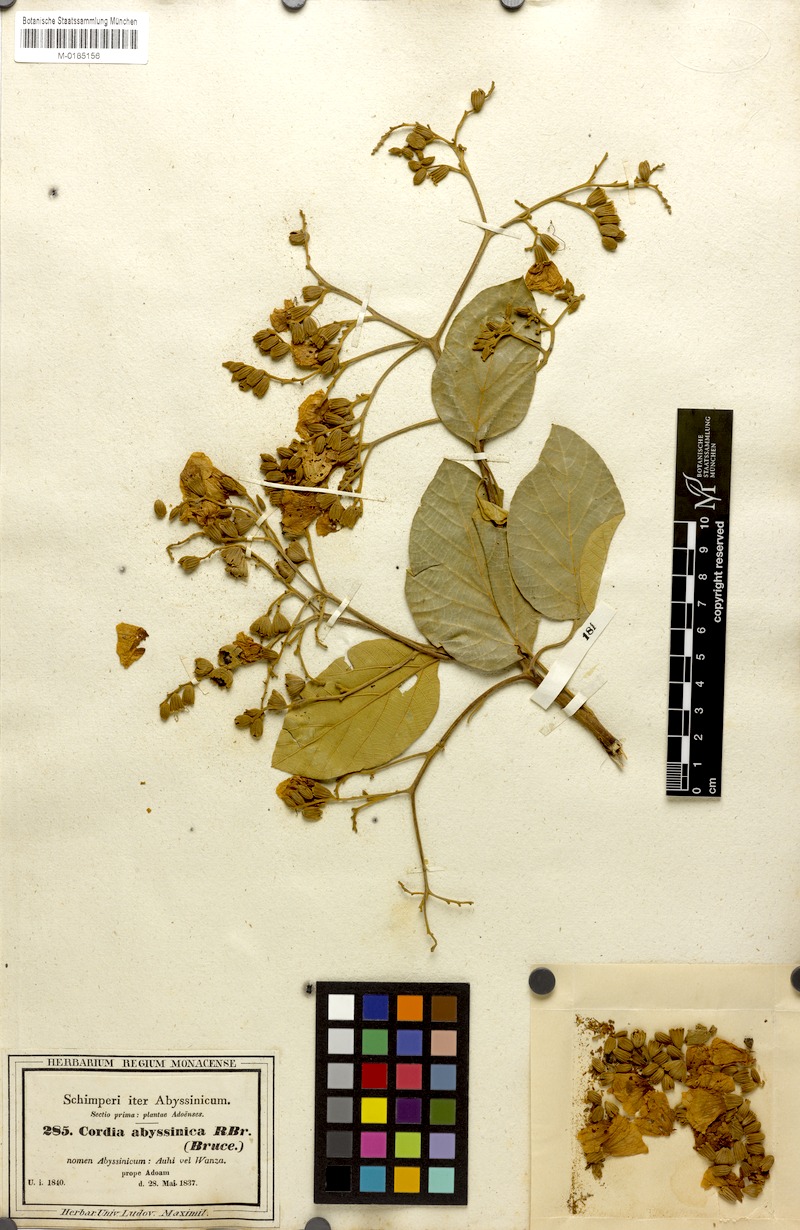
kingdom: Plantae
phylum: Tracheophyta
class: Magnoliopsida
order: Boraginales
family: Cordiaceae
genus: Cordia
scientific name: Cordia africana
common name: Large-leaved cordia
